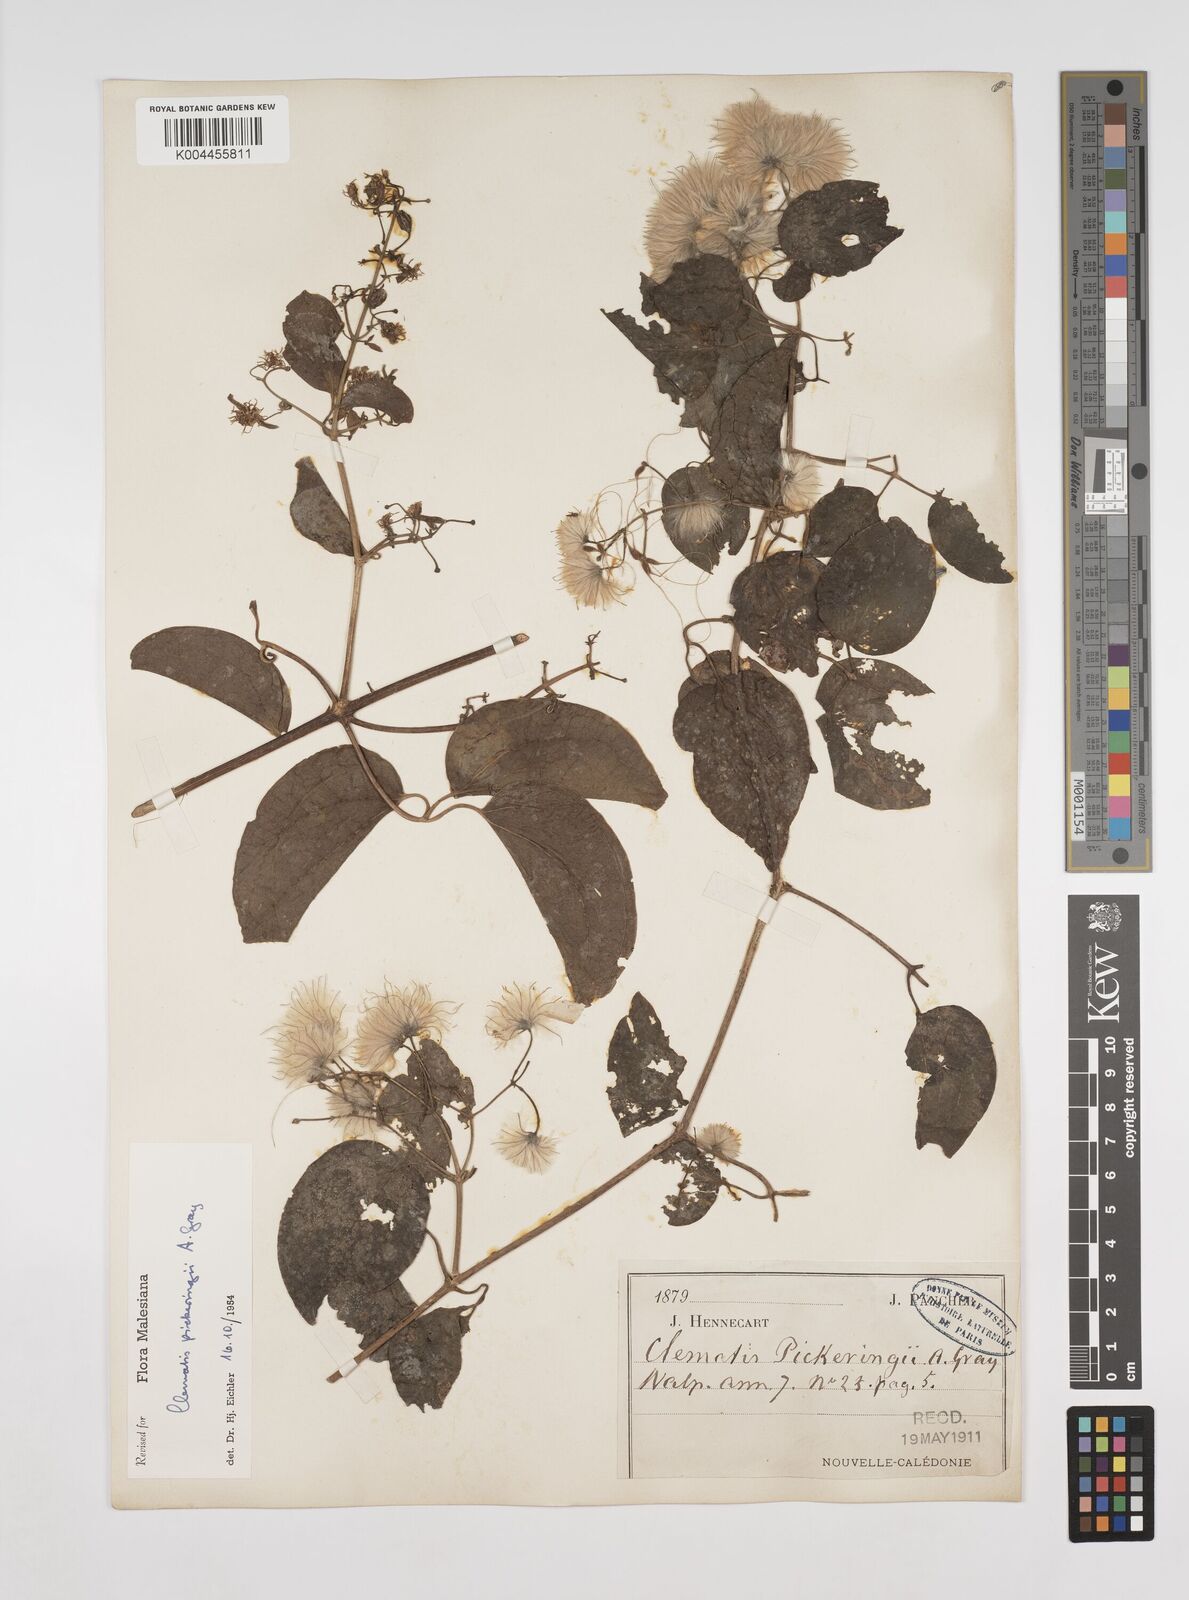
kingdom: Plantae
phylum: Tracheophyta
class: Magnoliopsida
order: Ranunculales
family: Ranunculaceae
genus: Clematis
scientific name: Clematis pickeringii
